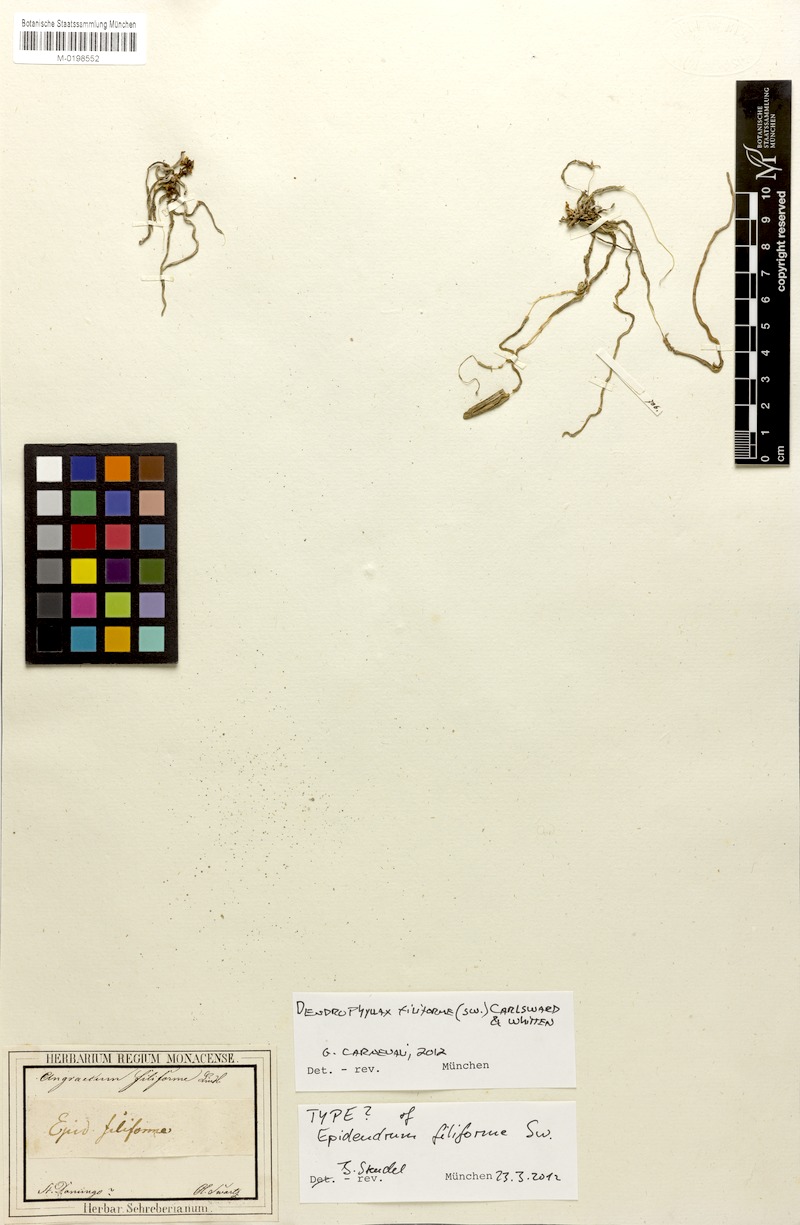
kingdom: Plantae
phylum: Tracheophyta
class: Liliopsida
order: Asparagales
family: Orchidaceae
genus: Dendrophylax
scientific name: Dendrophylax filiformis
